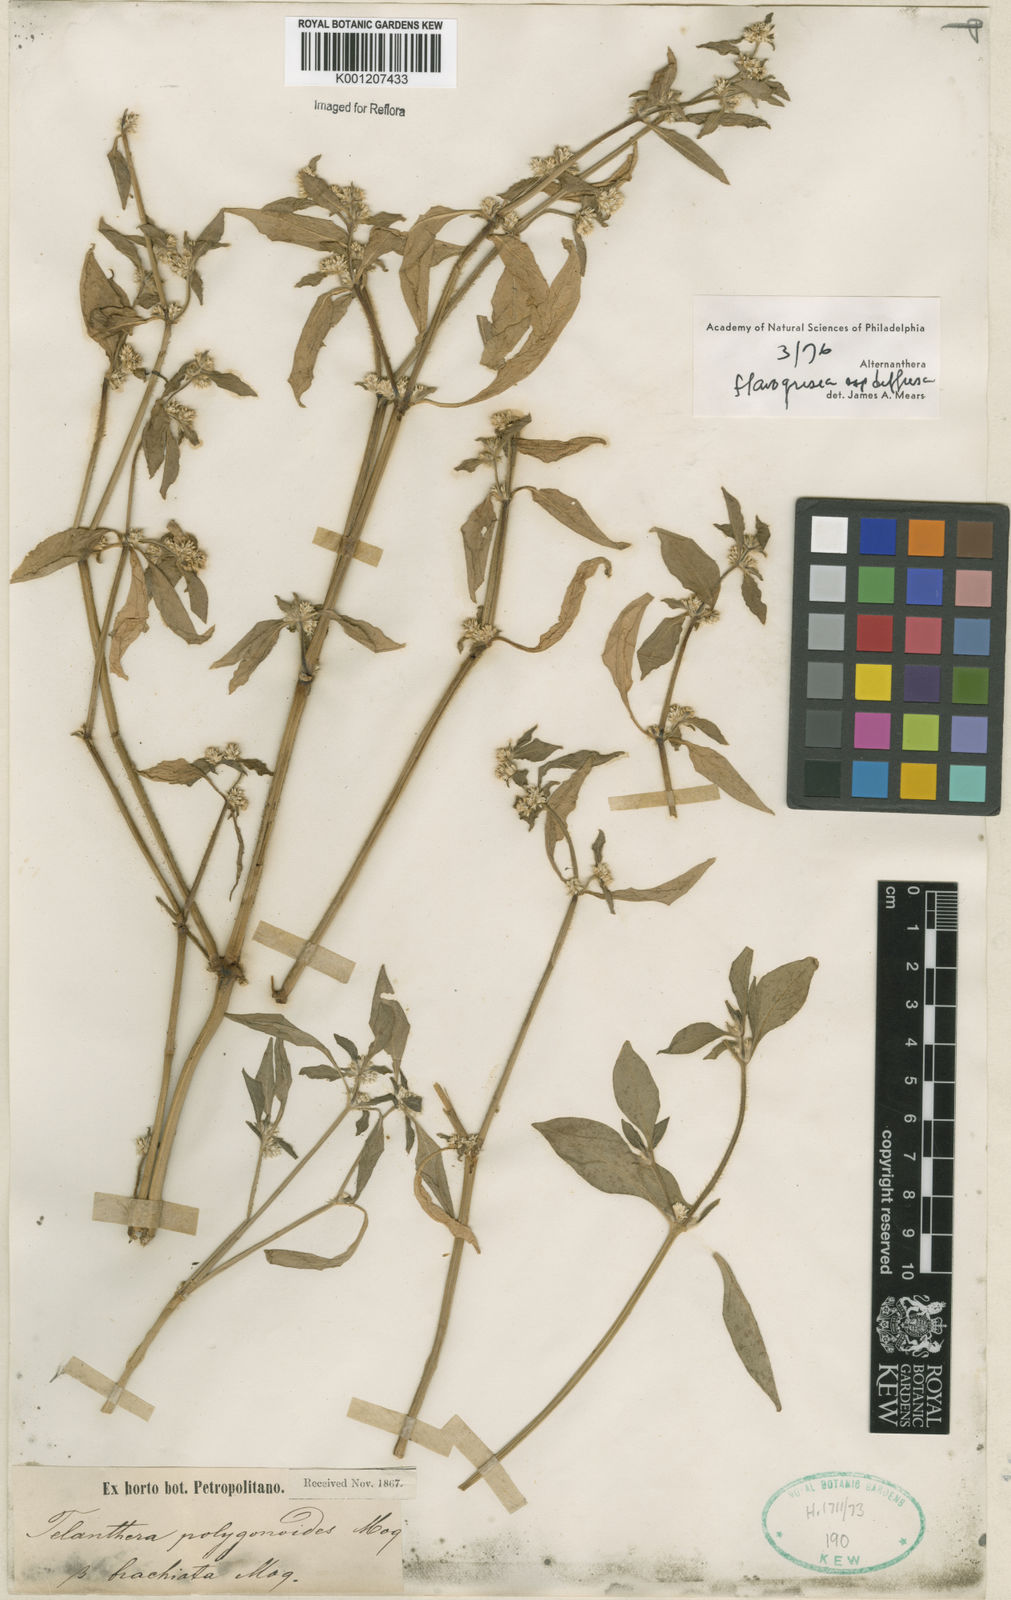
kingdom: Plantae
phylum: Tracheophyta
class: Magnoliopsida
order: Caryophyllales
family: Amaranthaceae
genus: Alternanthera
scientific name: Alternanthera halimifolia
